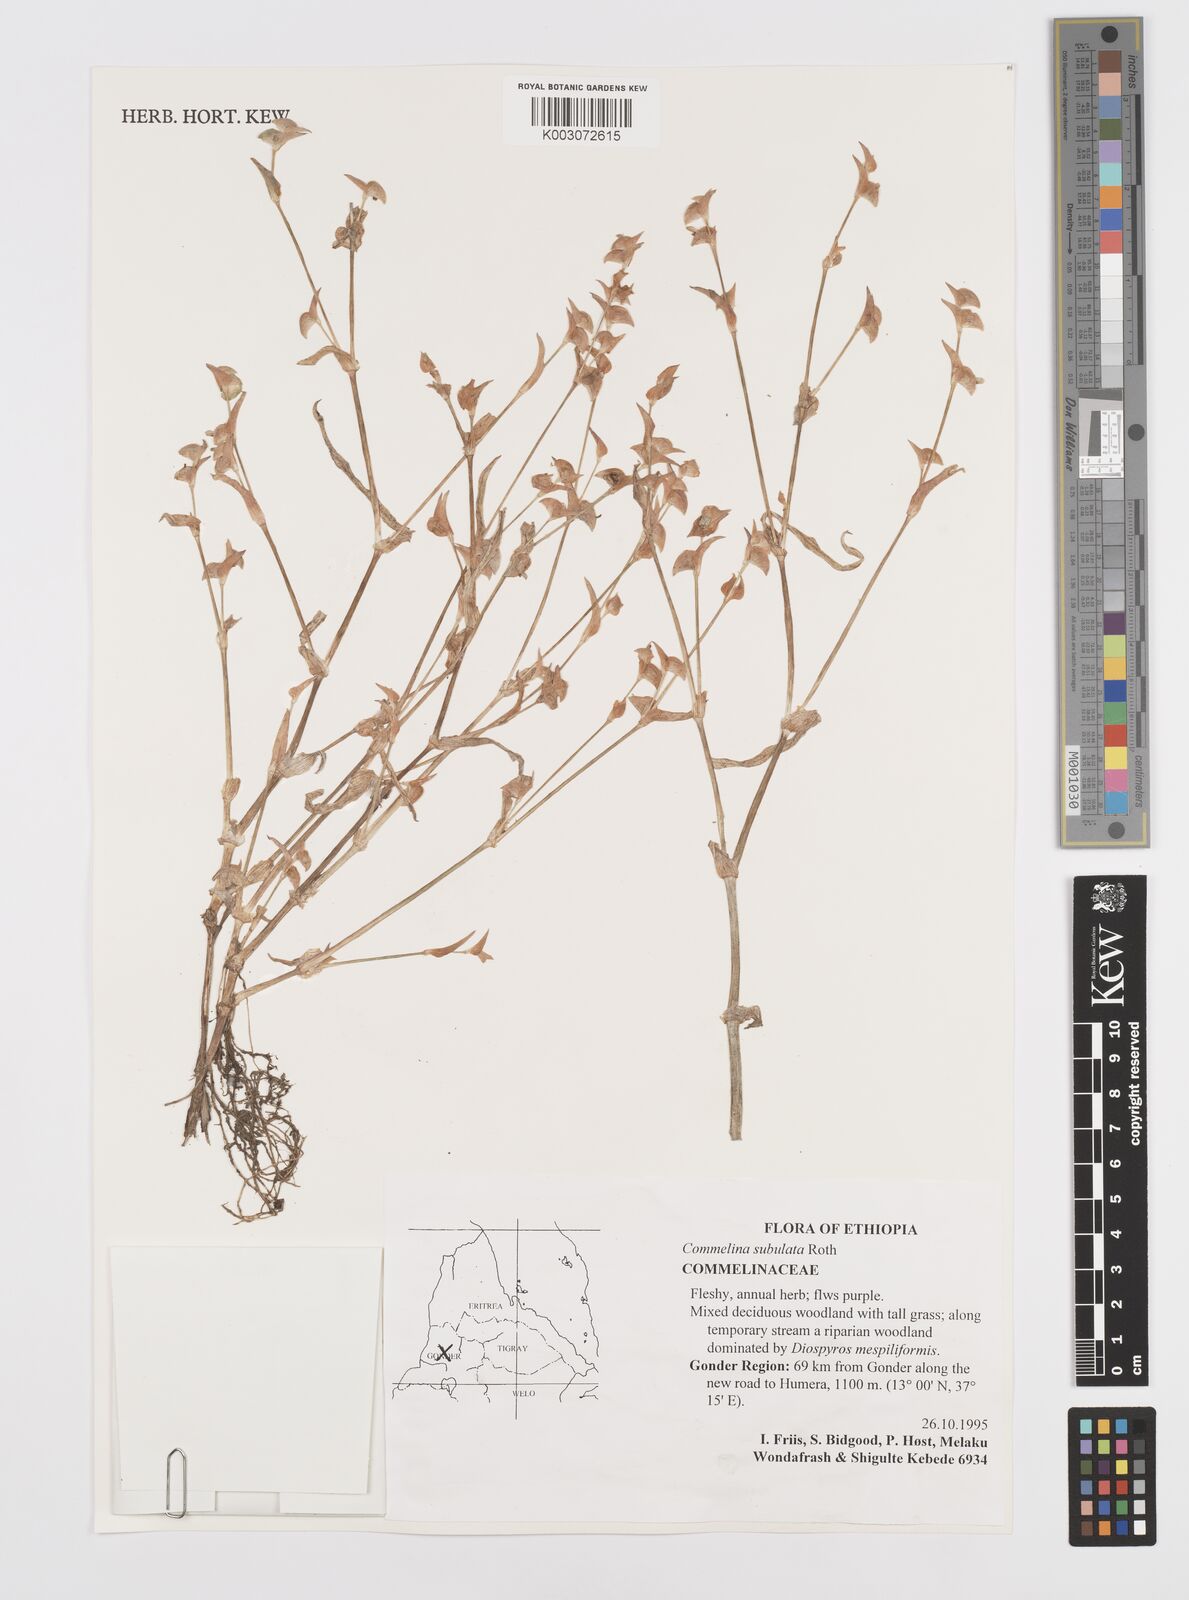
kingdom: Plantae
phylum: Tracheophyta
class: Liliopsida
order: Commelinales
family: Commelinaceae
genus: Commelina
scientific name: Commelina subulata
